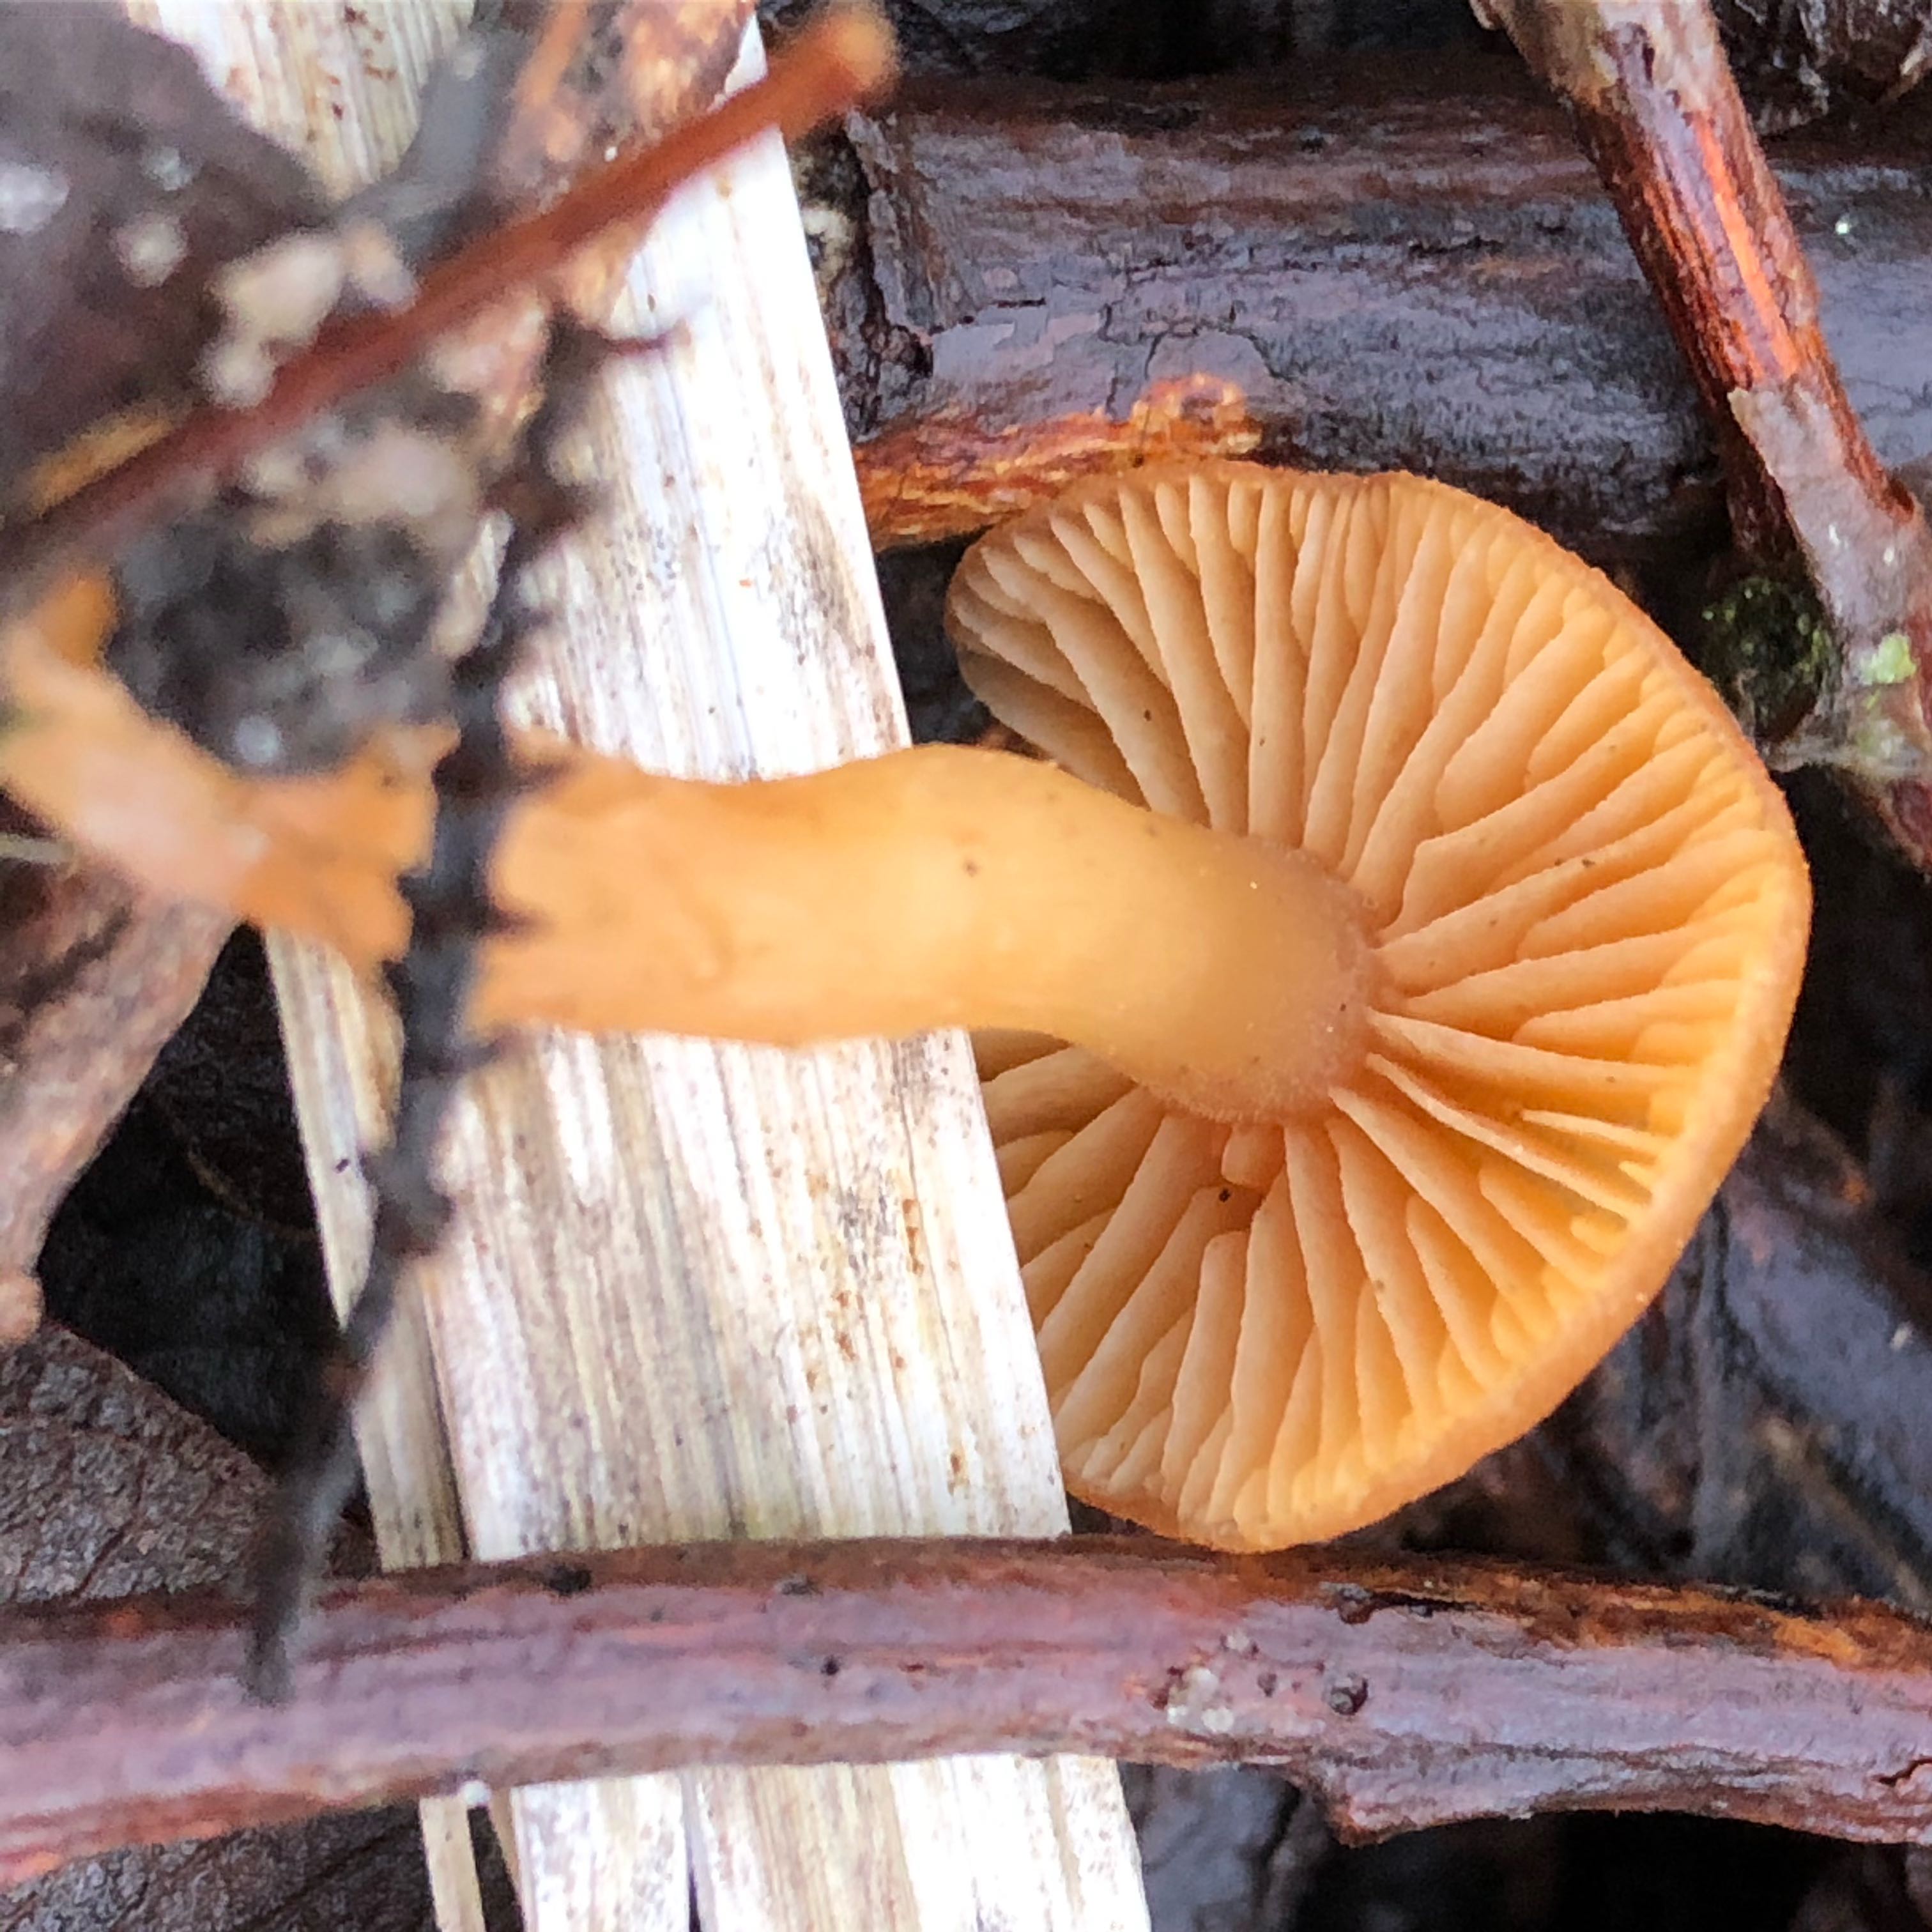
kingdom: Fungi
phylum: Basidiomycota
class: Agaricomycetes
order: Agaricales
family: Tubariaceae
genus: Tubaria
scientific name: Tubaria furfuracea
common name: kliddet fnughat
